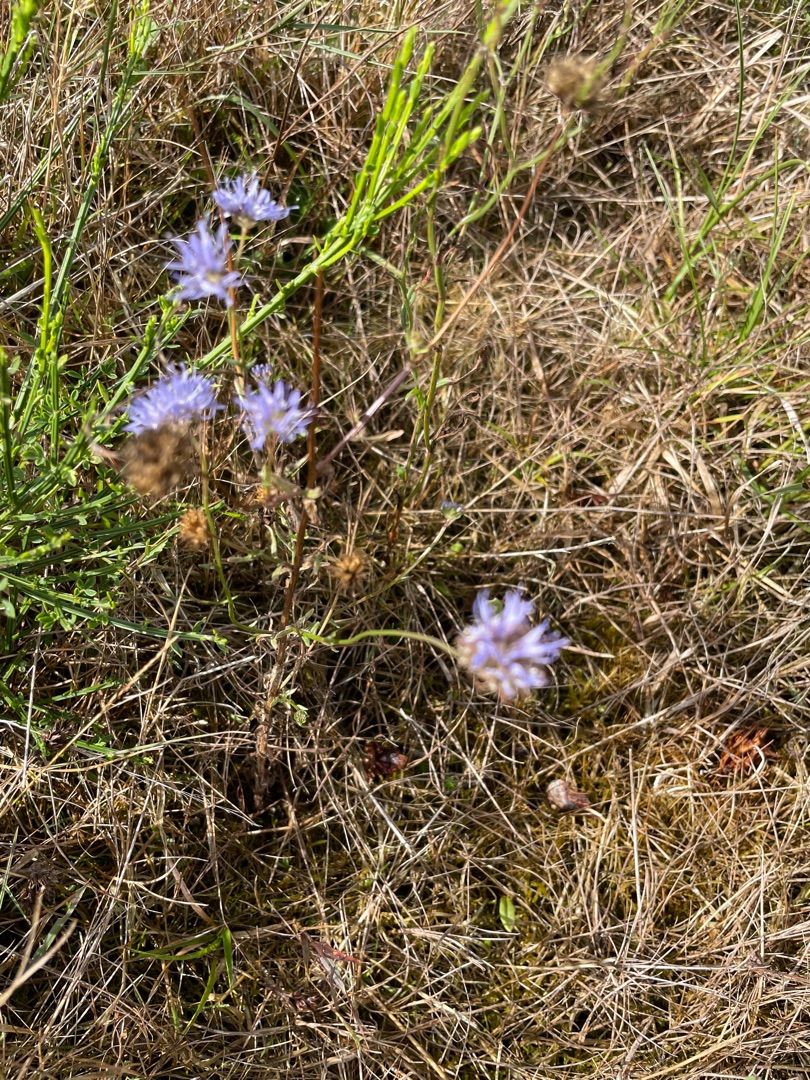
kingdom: Plantae
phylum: Tracheophyta
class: Magnoliopsida
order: Asterales
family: Campanulaceae
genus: Jasione
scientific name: Jasione montana
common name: Blåmunke
